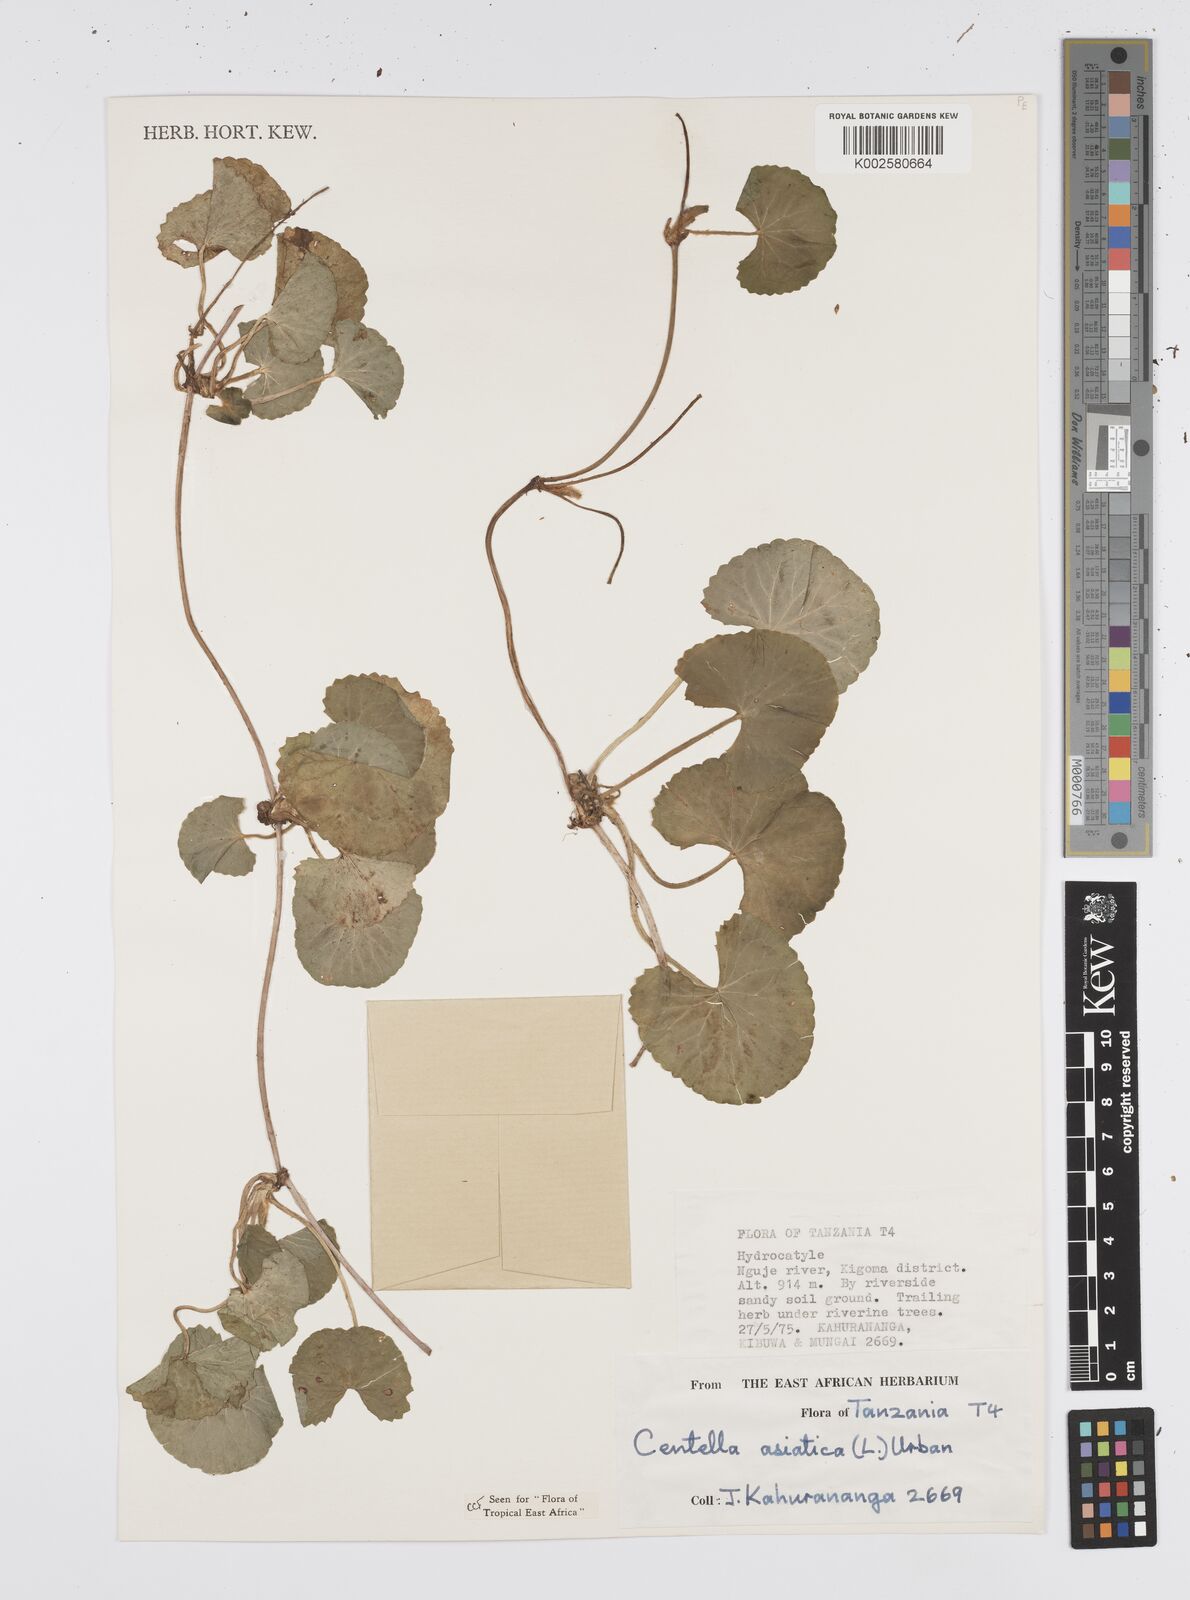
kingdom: Plantae
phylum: Tracheophyta
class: Magnoliopsida
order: Apiales
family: Apiaceae
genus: Centella
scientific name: Centella asiatica
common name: Spadeleaf
